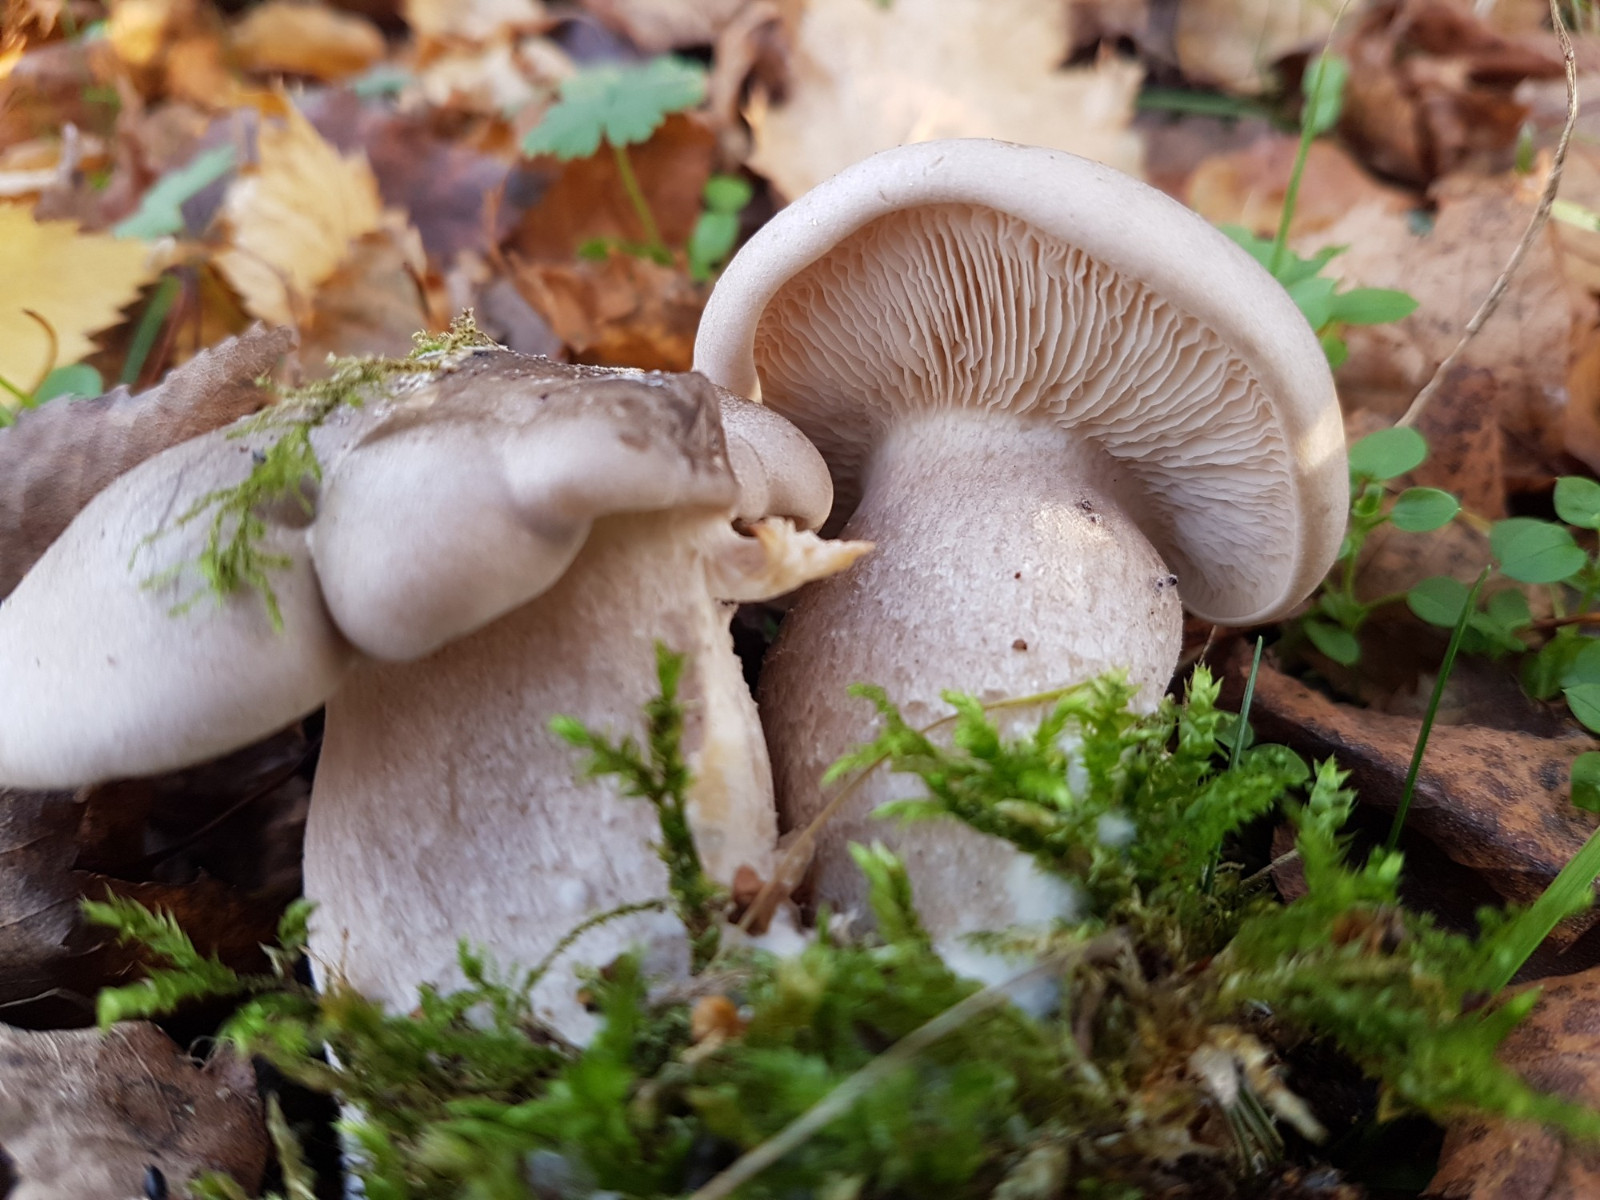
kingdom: Fungi
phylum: Basidiomycota
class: Agaricomycetes
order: Agaricales
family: Tricholomataceae
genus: Lepista
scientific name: Lepista irina
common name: violduftende hekseringshat
